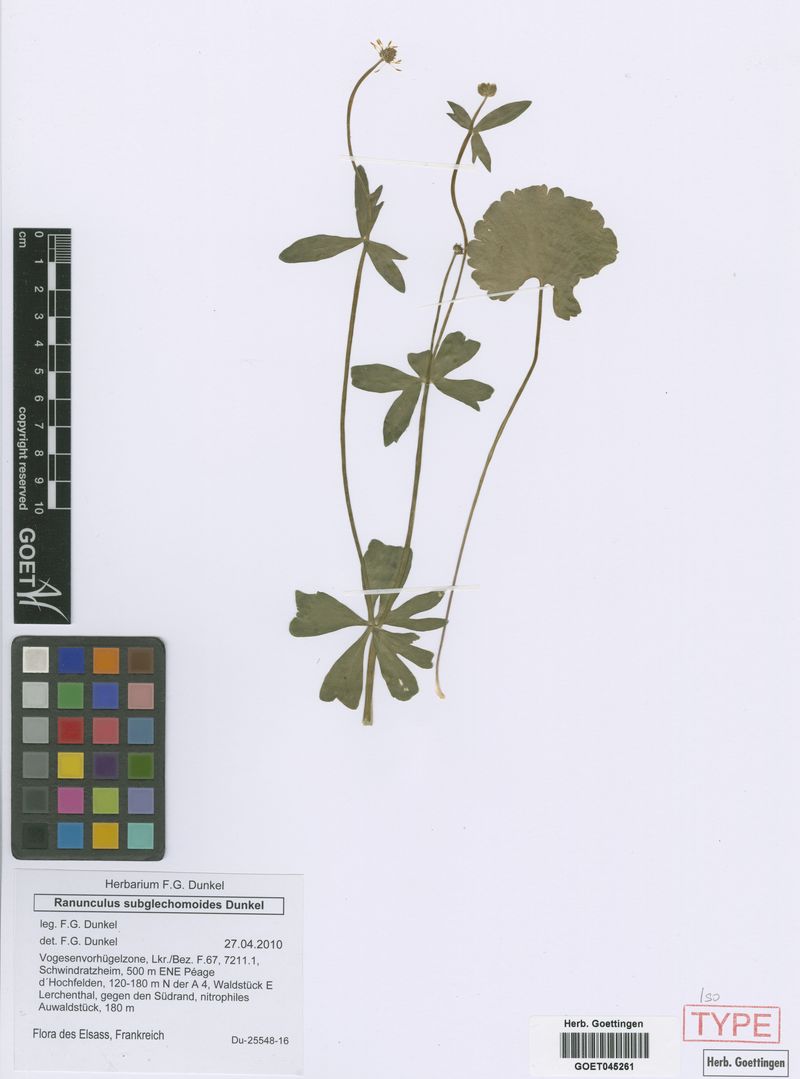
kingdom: Plantae
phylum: Tracheophyta
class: Magnoliopsida
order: Ranunculales
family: Ranunculaceae
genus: Ranunculus
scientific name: Ranunculus subglechomoides
